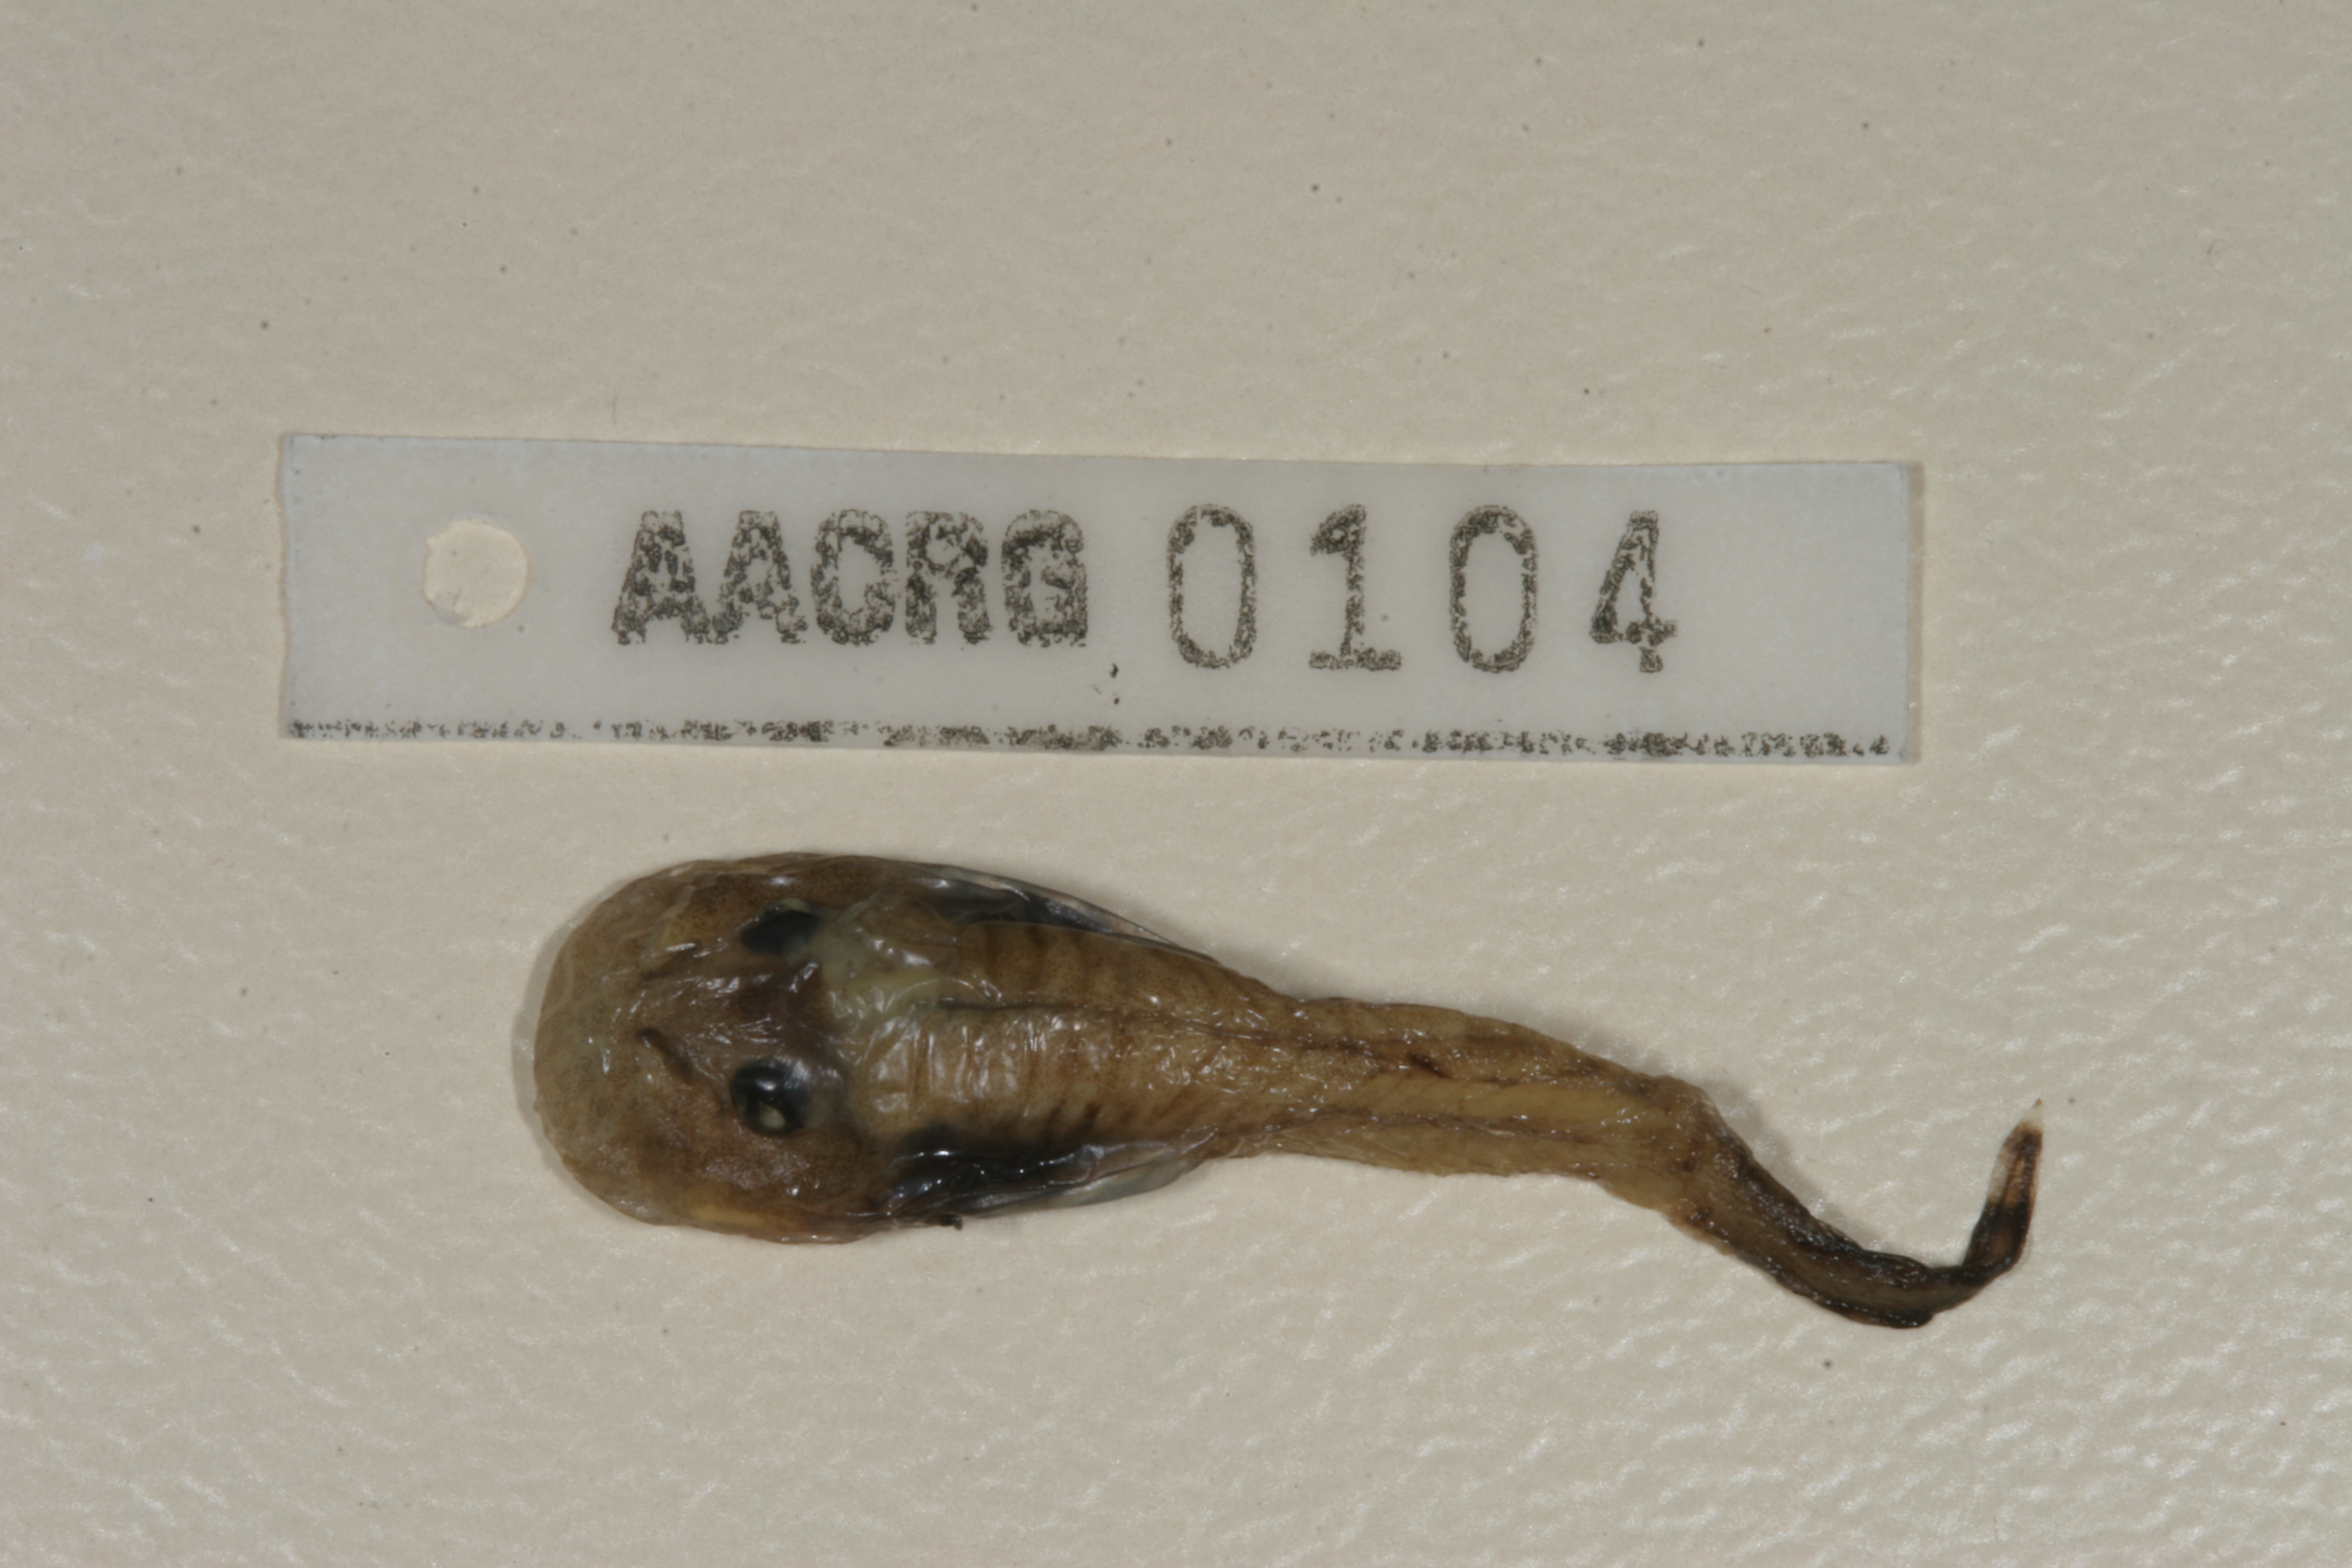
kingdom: Animalia
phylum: Chordata
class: Amphibia
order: Anura
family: Heleophrynidae
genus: Heleophryne
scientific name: Heleophryne purcelli
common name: Purcell's ghost frog
